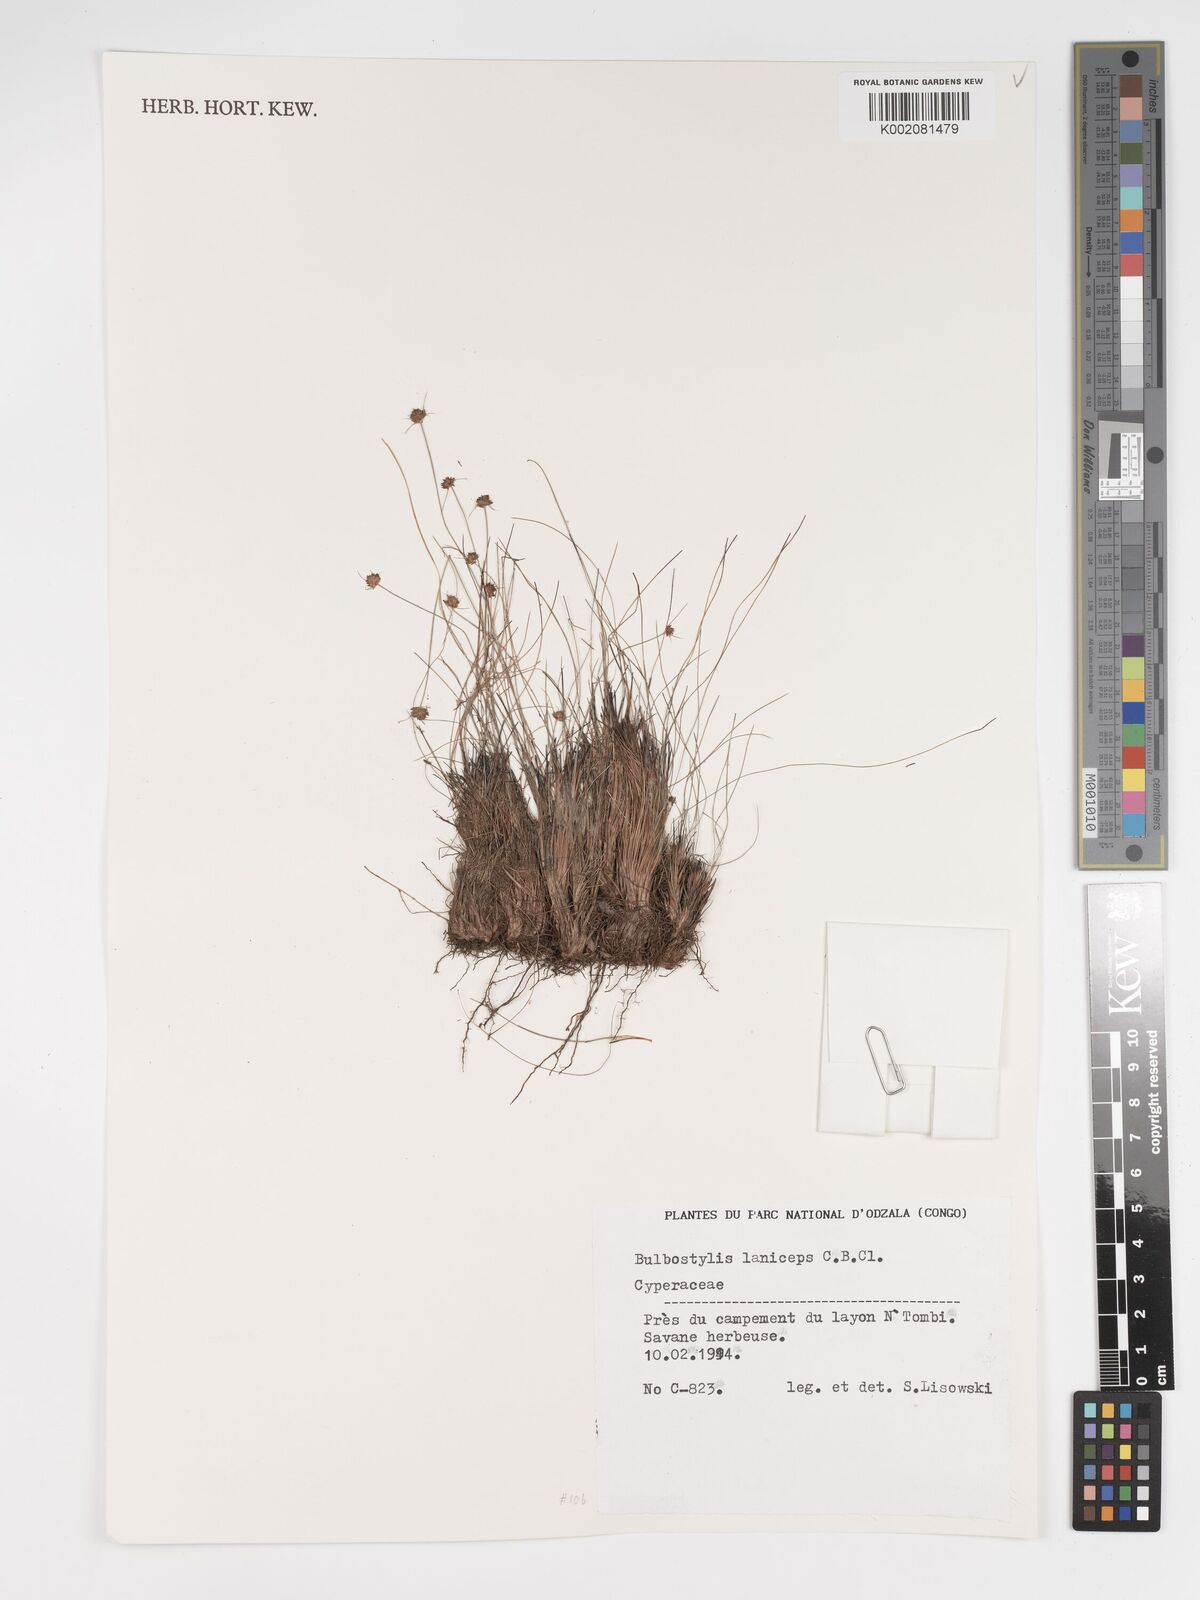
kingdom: Plantae
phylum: Tracheophyta
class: Liliopsida
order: Poales
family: Cyperaceae
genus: Bulbostylis
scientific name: Bulbostylis laniceps
